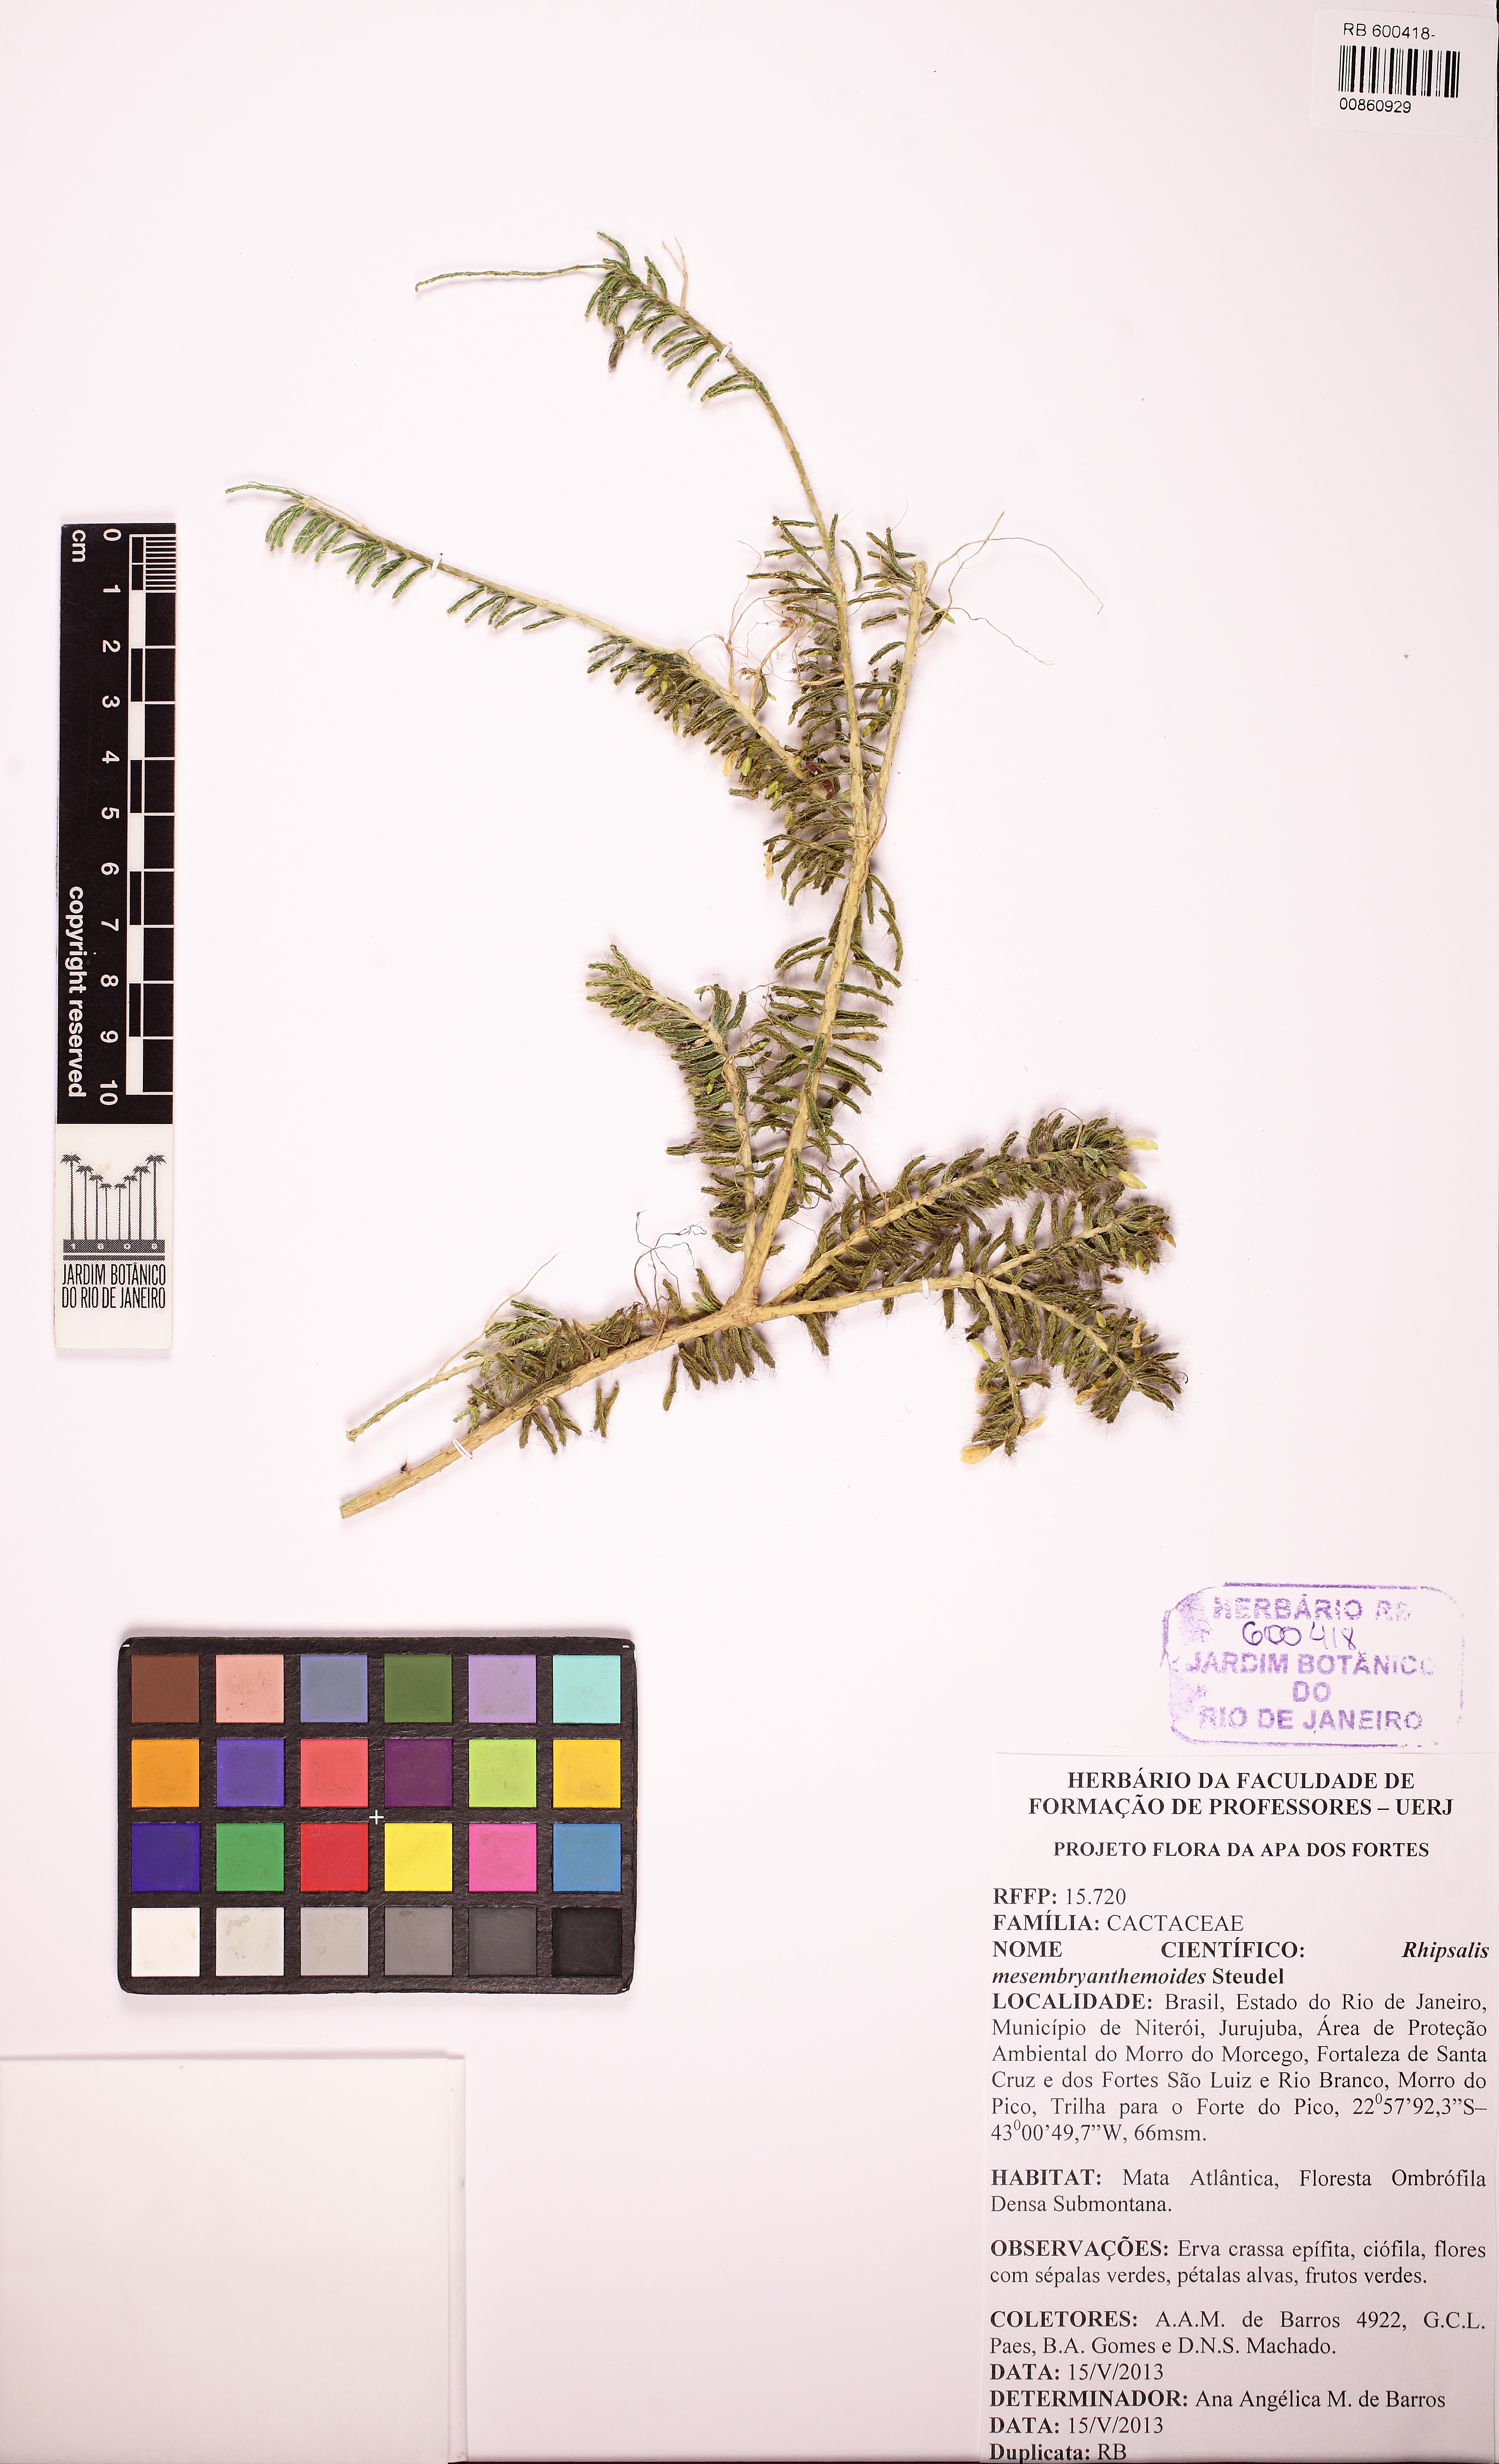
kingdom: Plantae
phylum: Tracheophyta
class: Magnoliopsida
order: Caryophyllales
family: Cactaceae
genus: Rhipsalis
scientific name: Rhipsalis mesembryanthemoides
